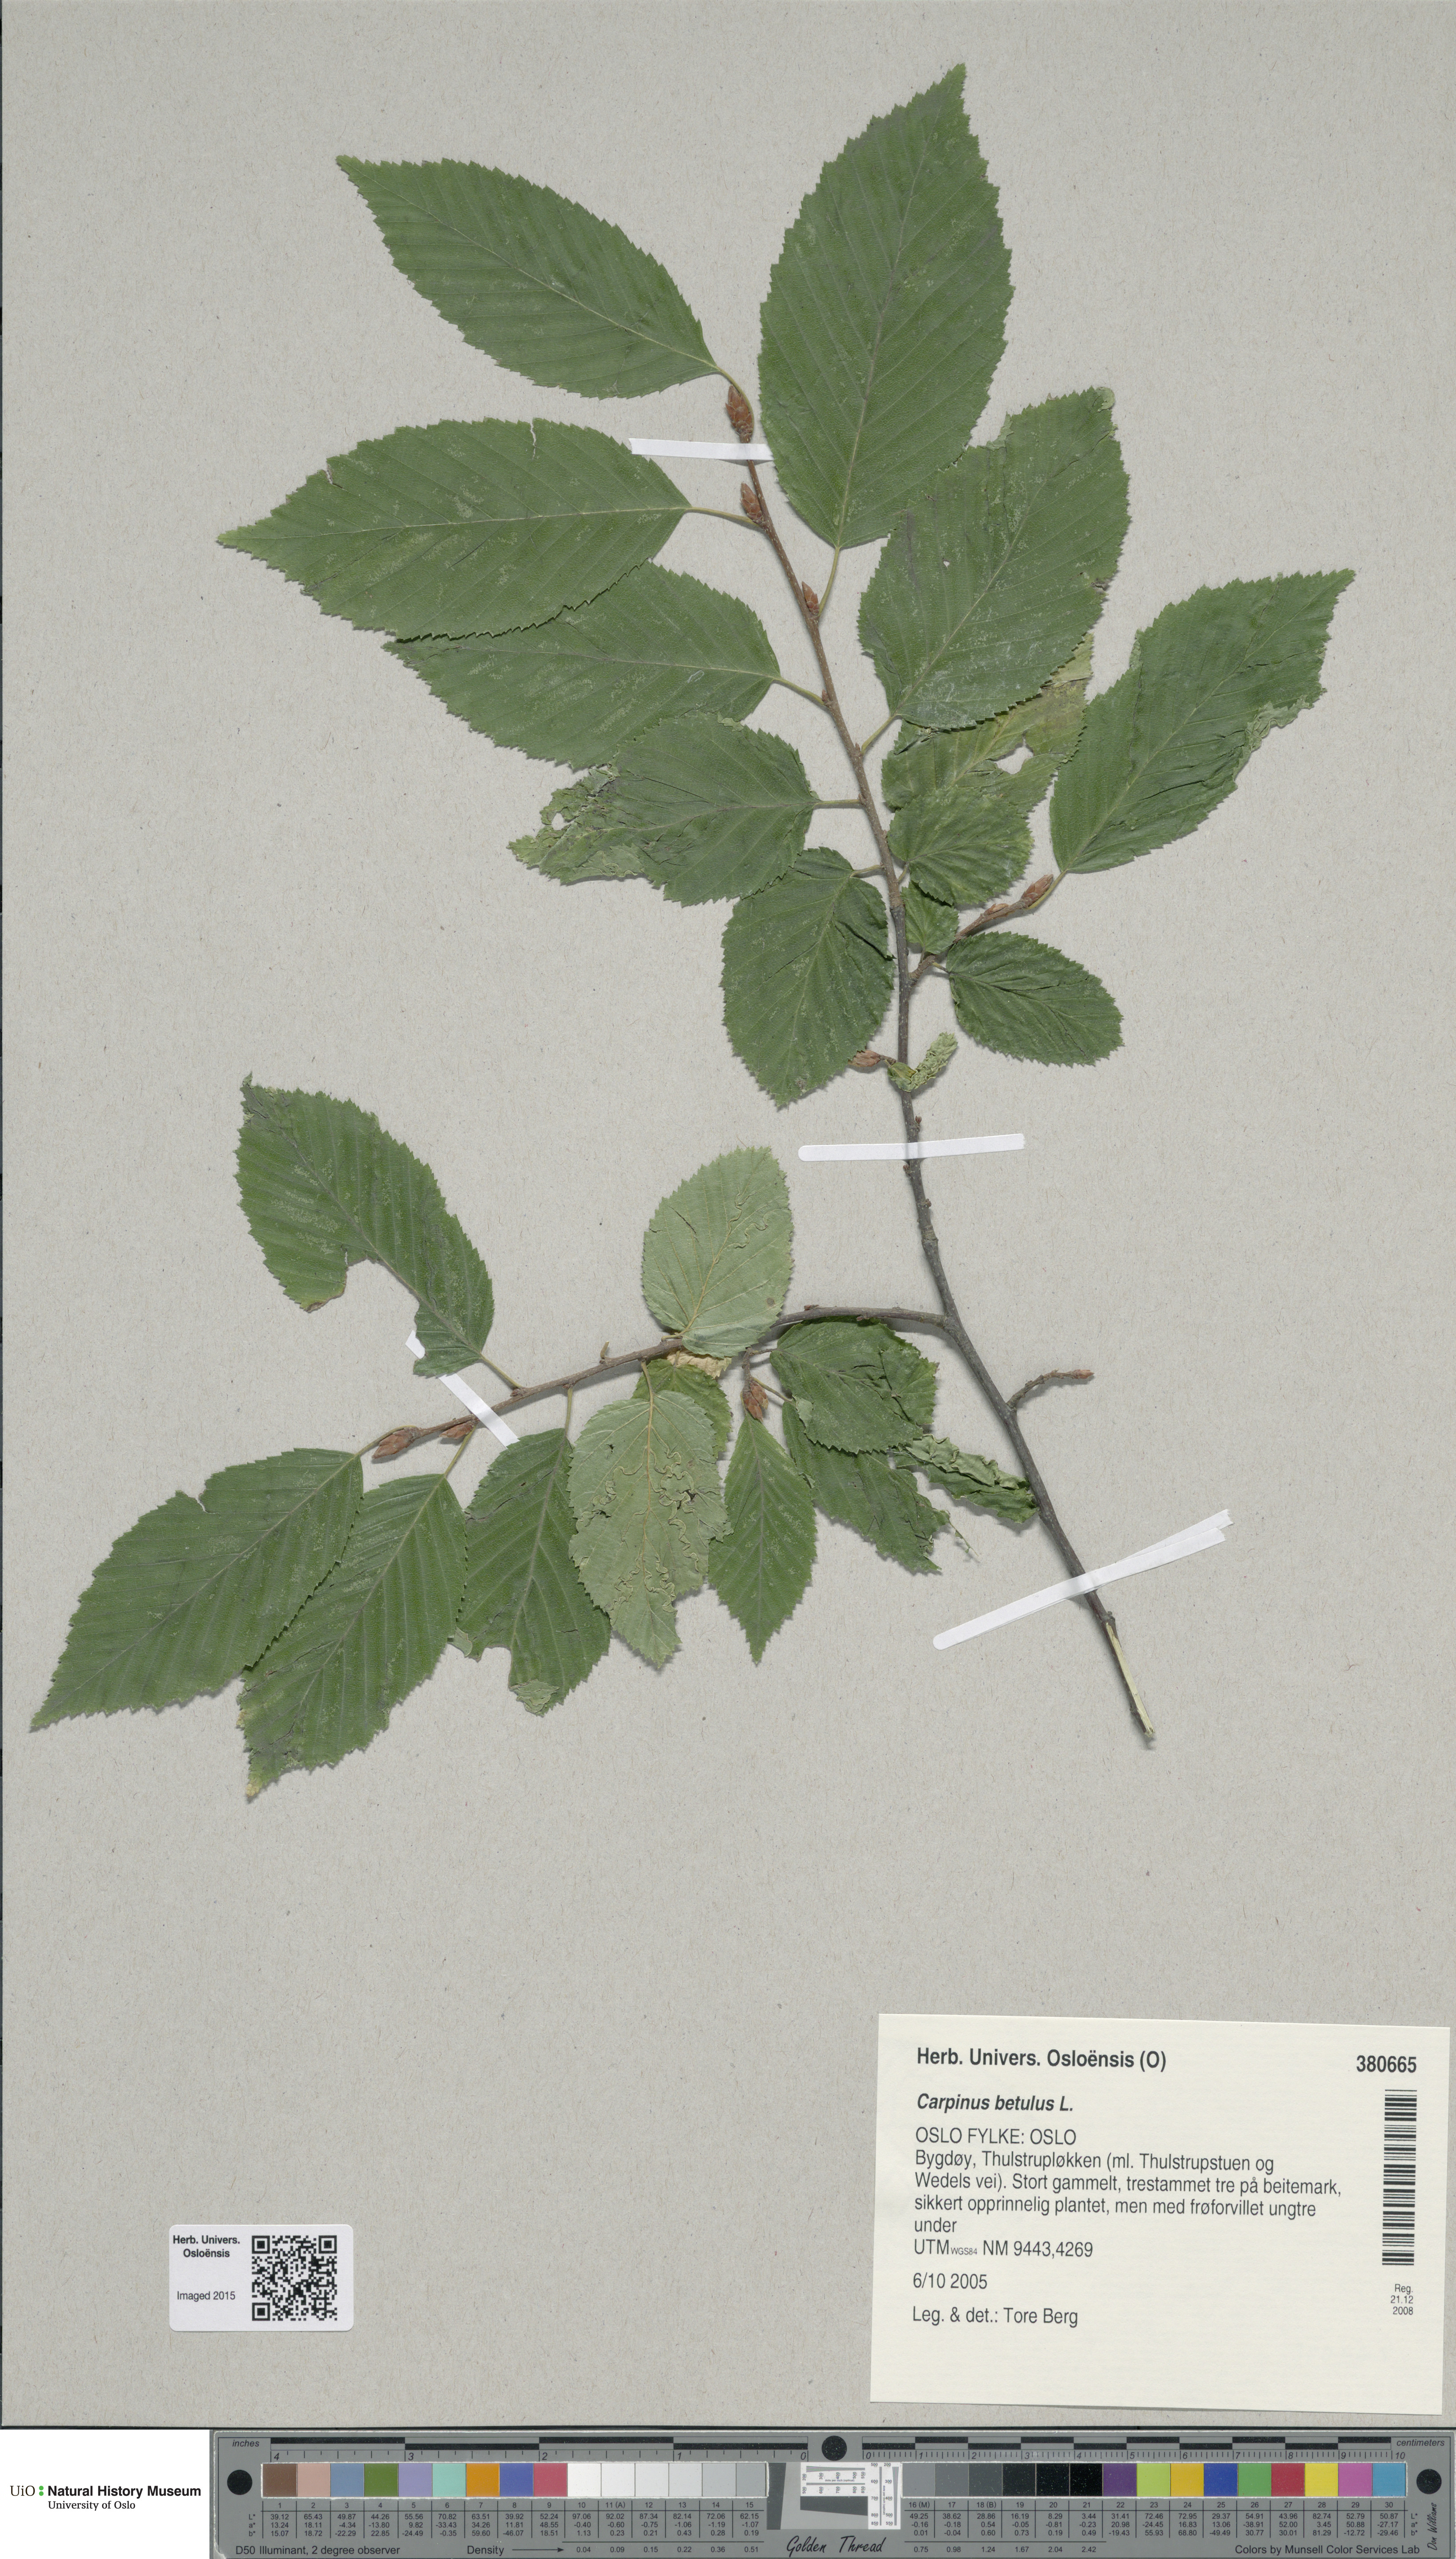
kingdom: Plantae
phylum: Tracheophyta
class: Magnoliopsida
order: Fagales
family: Betulaceae
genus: Carpinus
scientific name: Carpinus betulus
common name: Hornbeam
